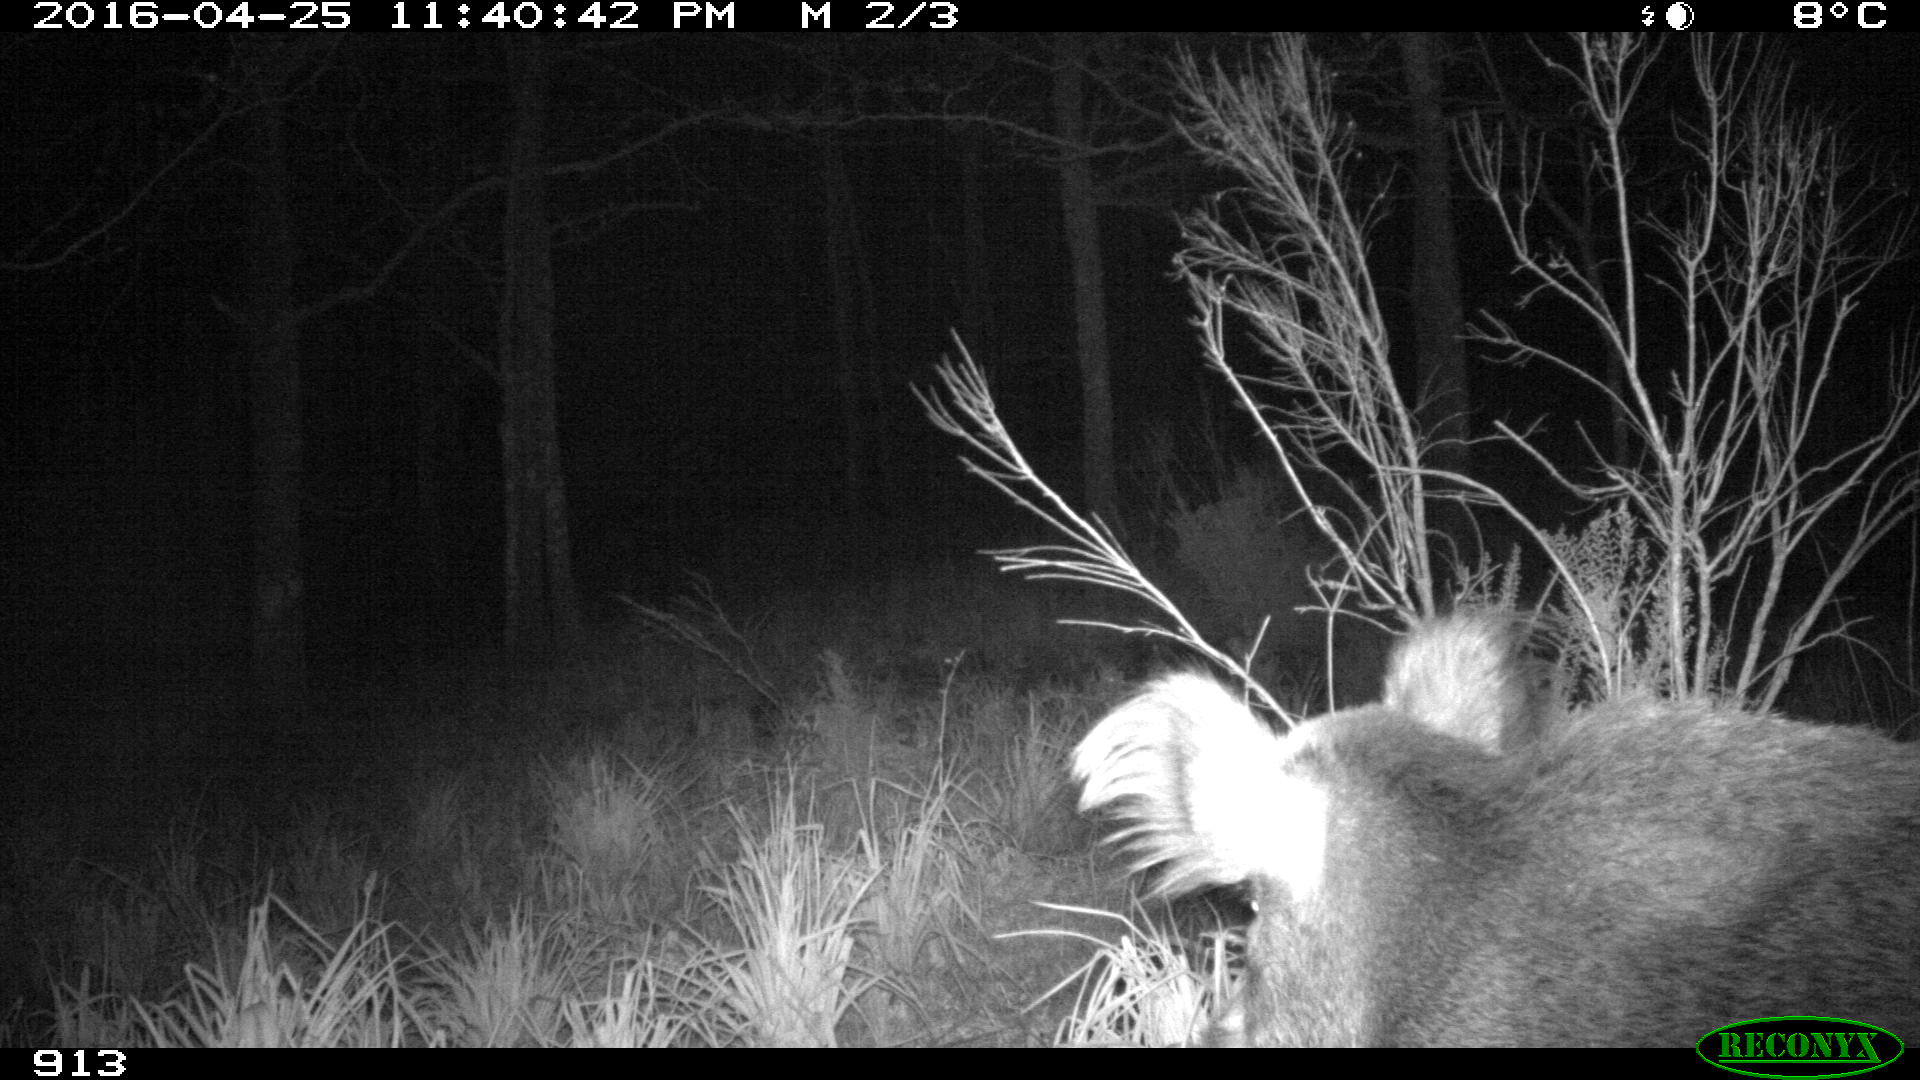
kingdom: Animalia
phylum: Chordata
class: Mammalia
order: Artiodactyla
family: Suidae
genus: Sus
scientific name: Sus scrofa
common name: Wild boar
